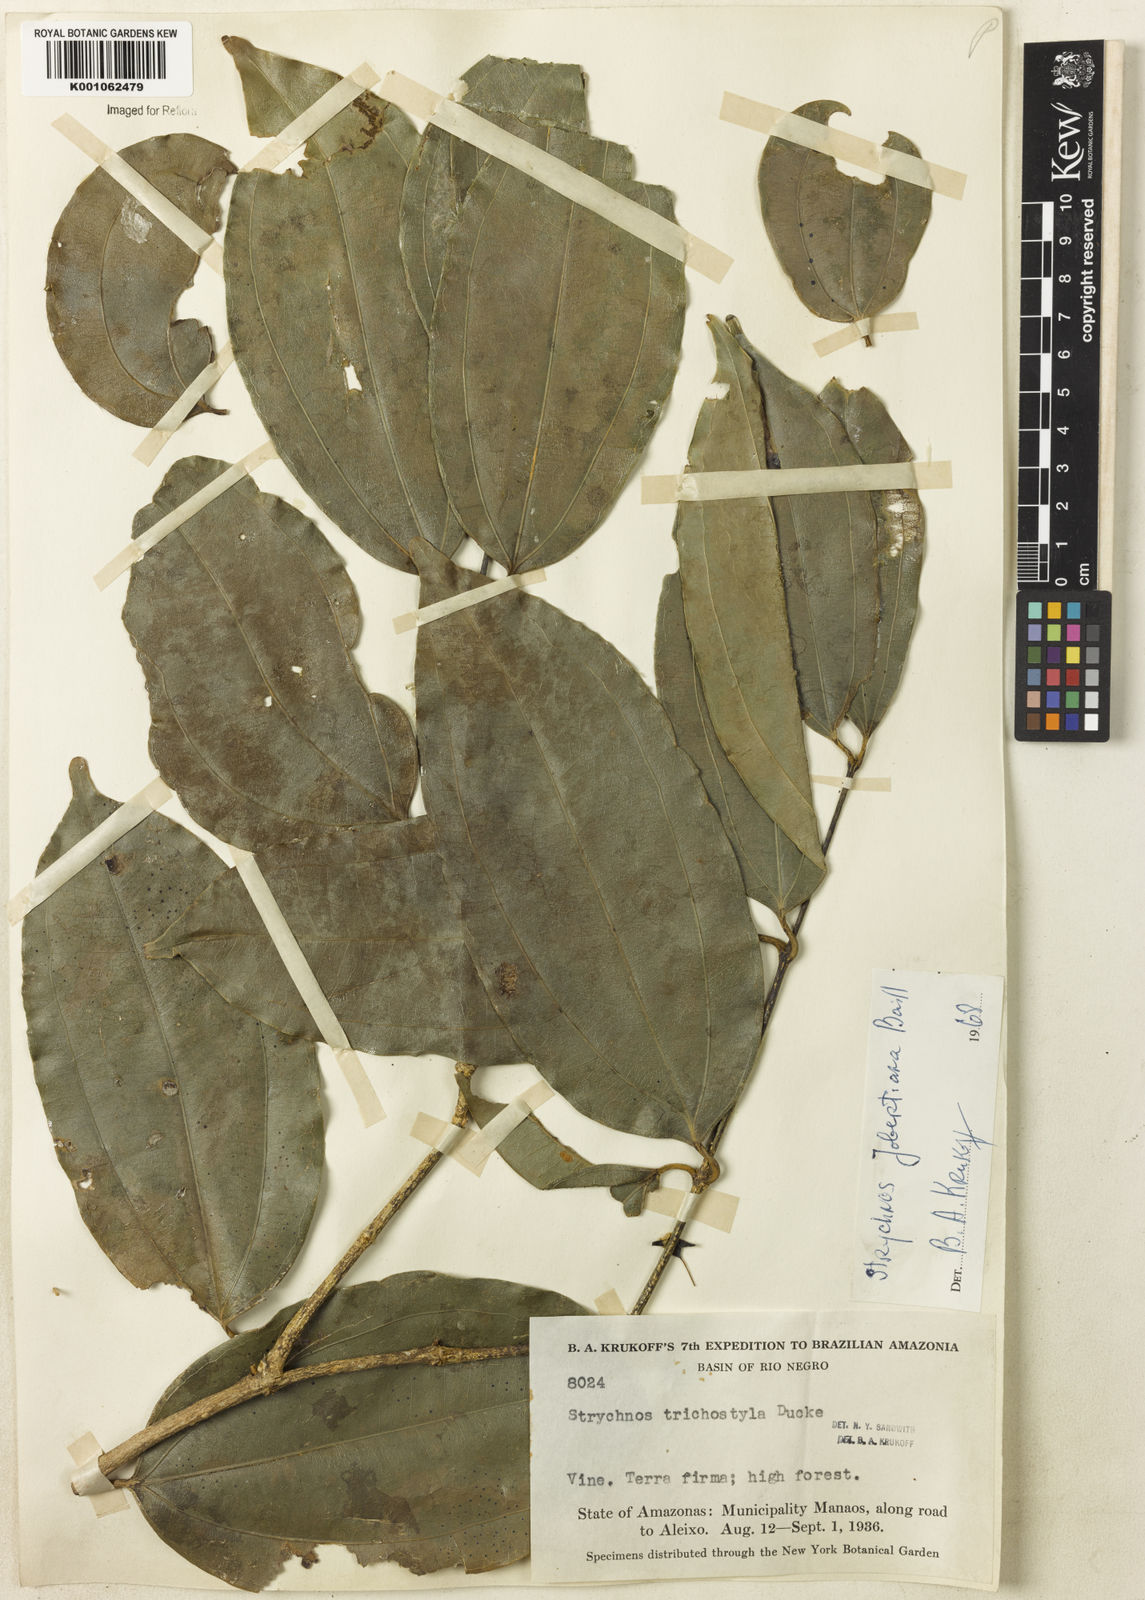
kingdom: Plantae
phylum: Tracheophyta
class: Magnoliopsida
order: Gentianales
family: Loganiaceae
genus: Strychnos
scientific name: Strychnos jobertiana
